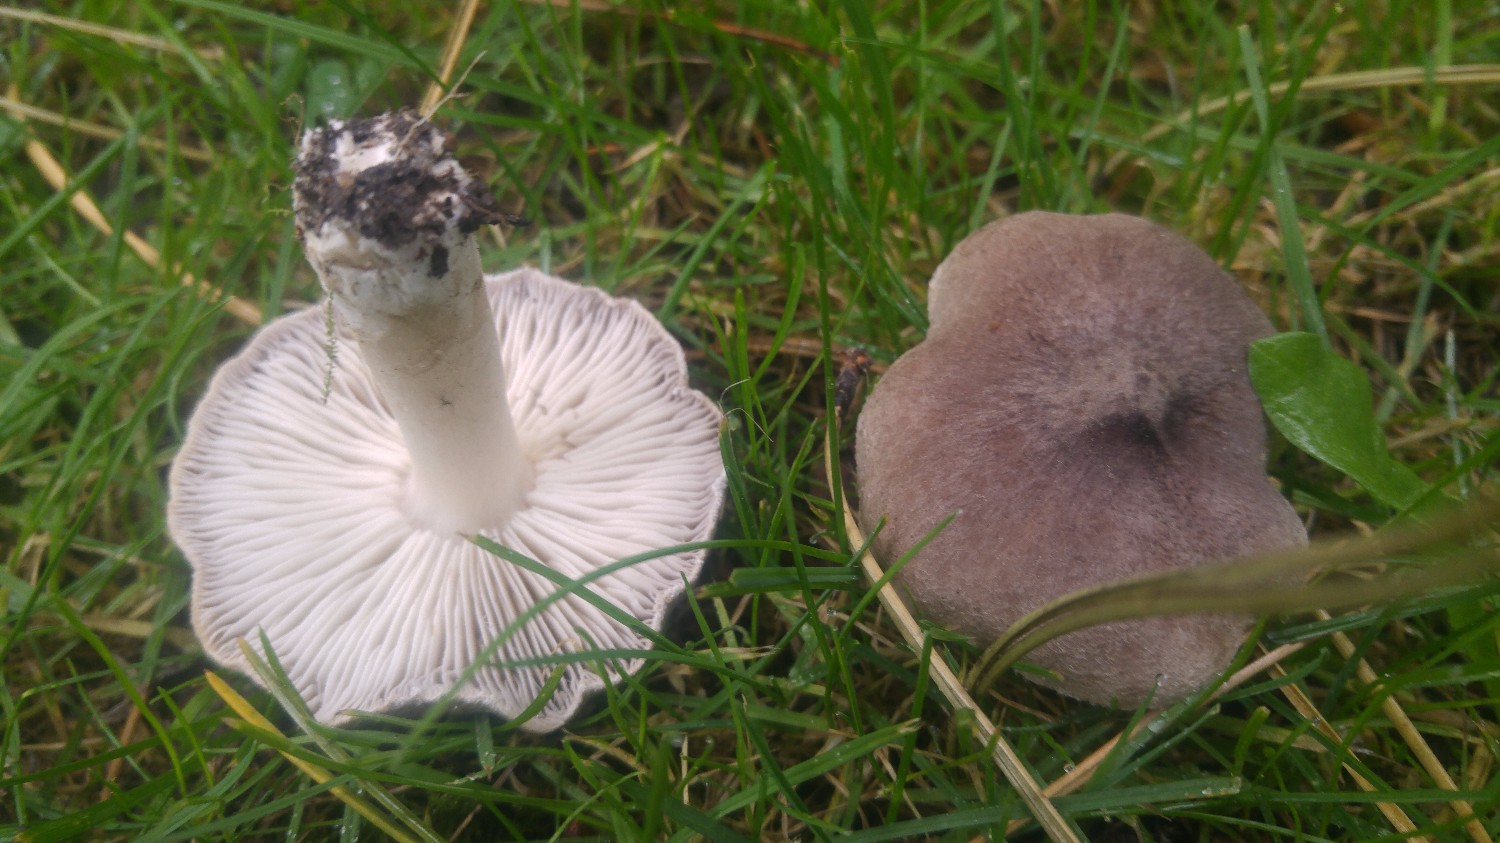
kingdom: Fungi
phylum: Basidiomycota
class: Agaricomycetes
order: Agaricales
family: Tricholomataceae
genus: Tricholoma
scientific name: Tricholoma terreum
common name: jordfarvet ridderhat
